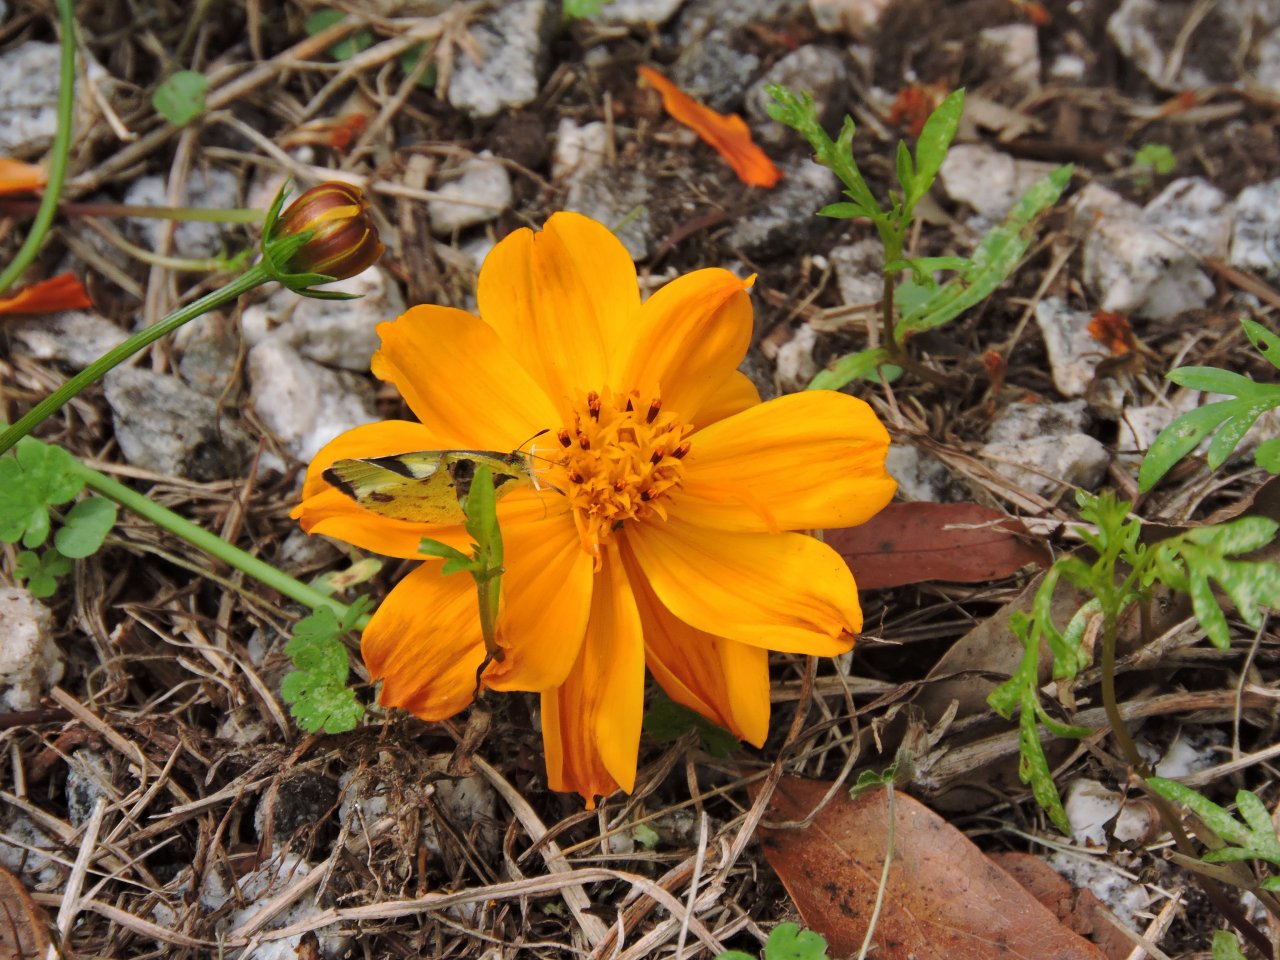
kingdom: Animalia
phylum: Arthropoda
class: Insecta
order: Lepidoptera
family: Pieridae
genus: Pyrisitia
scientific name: Pyrisitia lisa
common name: Little Yellow
